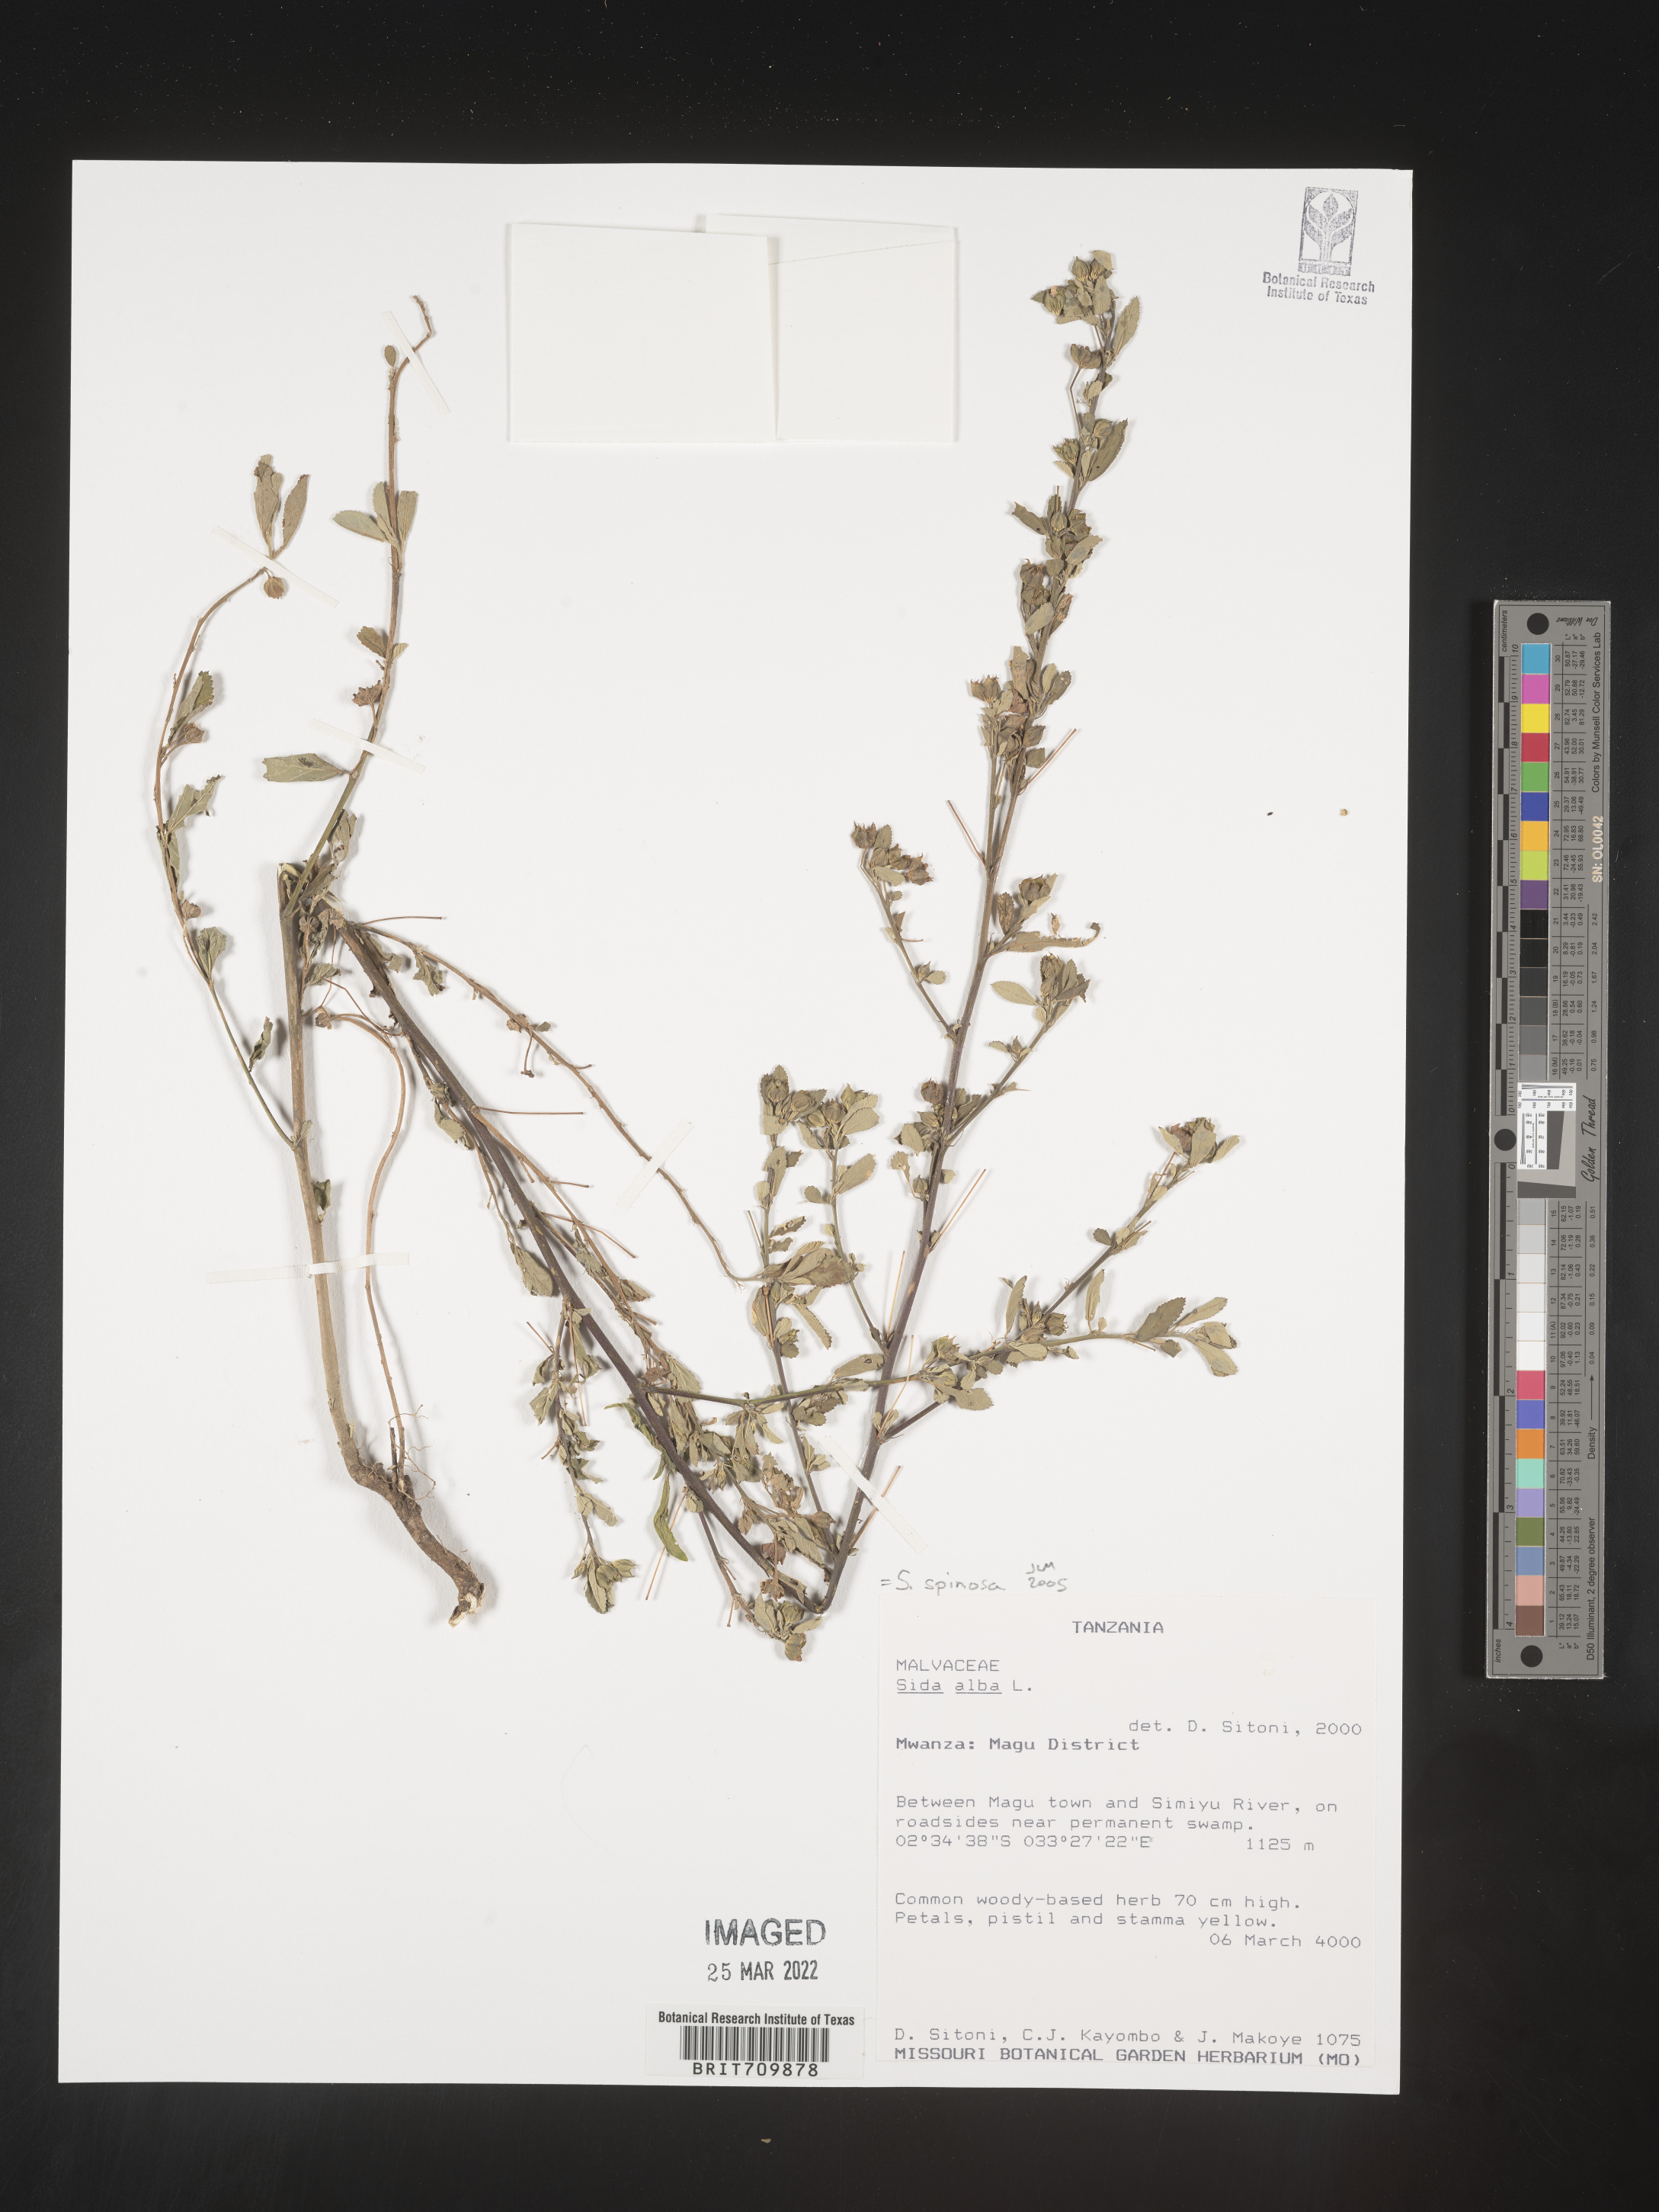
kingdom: Plantae
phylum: Tracheophyta
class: Magnoliopsida
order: Malvales
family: Malvaceae
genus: Sida
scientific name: Sida
